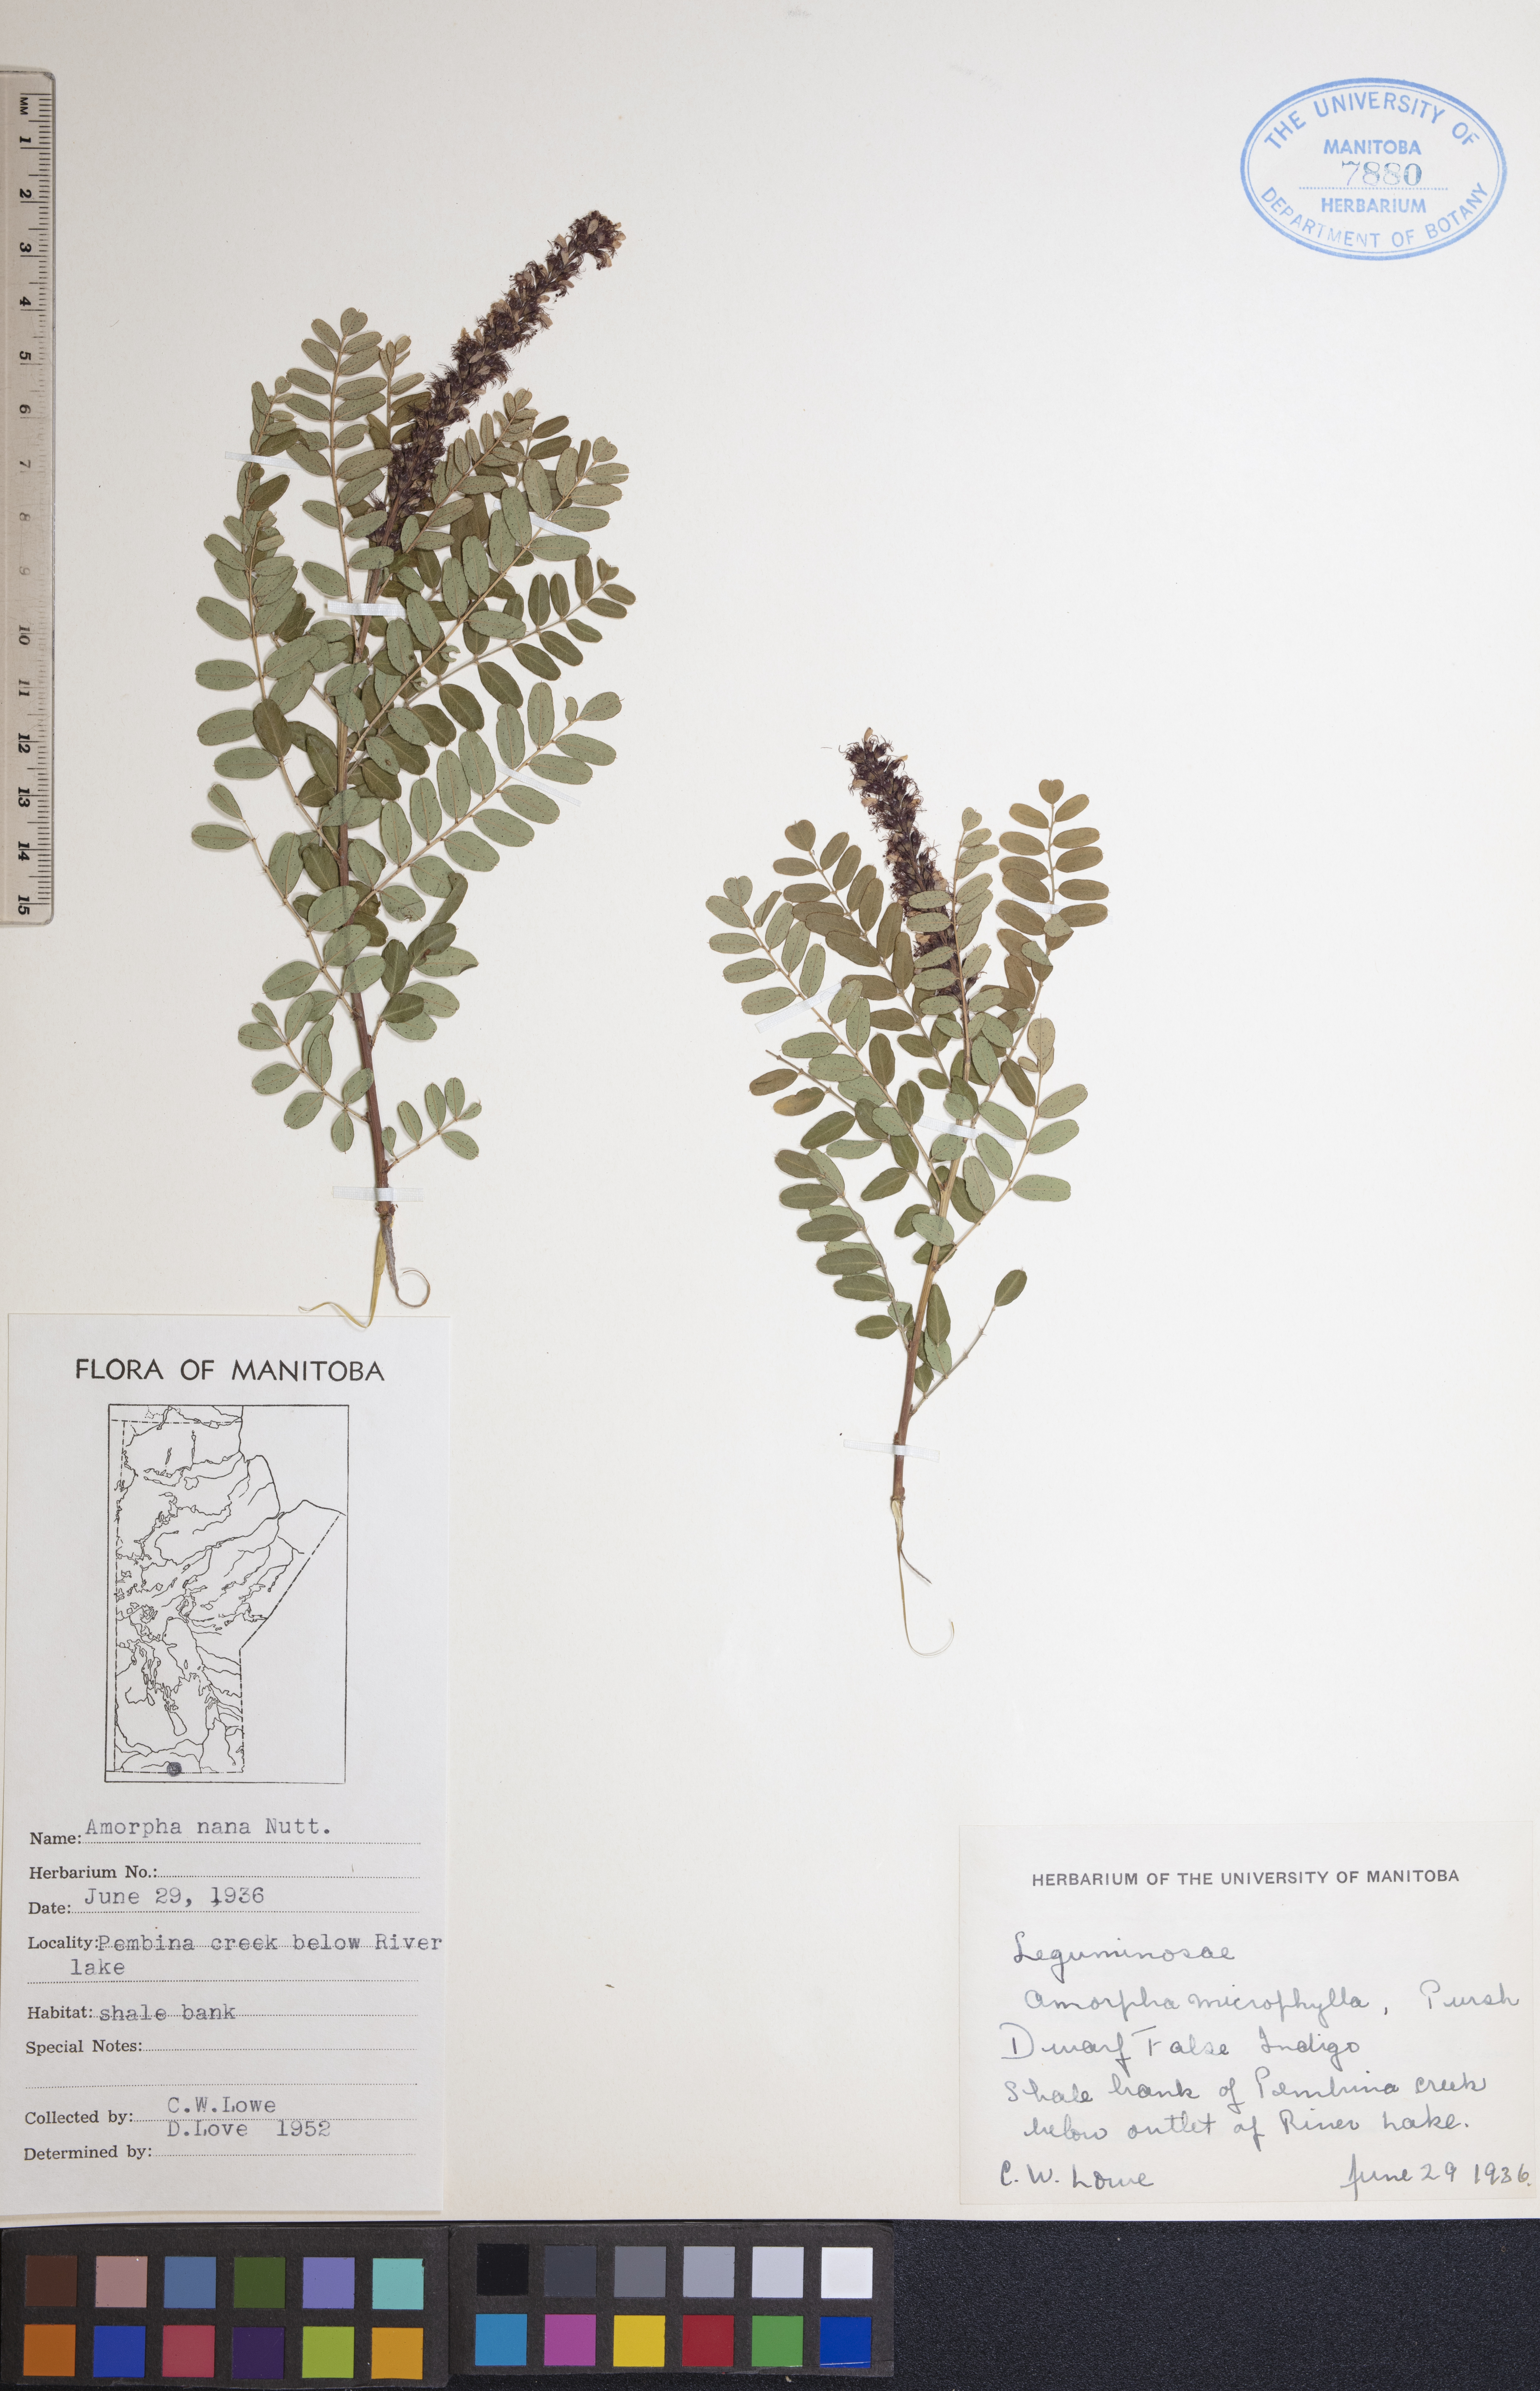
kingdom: Plantae
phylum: Tracheophyta
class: Magnoliopsida
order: Fabales
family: Fabaceae
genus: Amorpha
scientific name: Amorpha nana
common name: Fragrant false indigo
